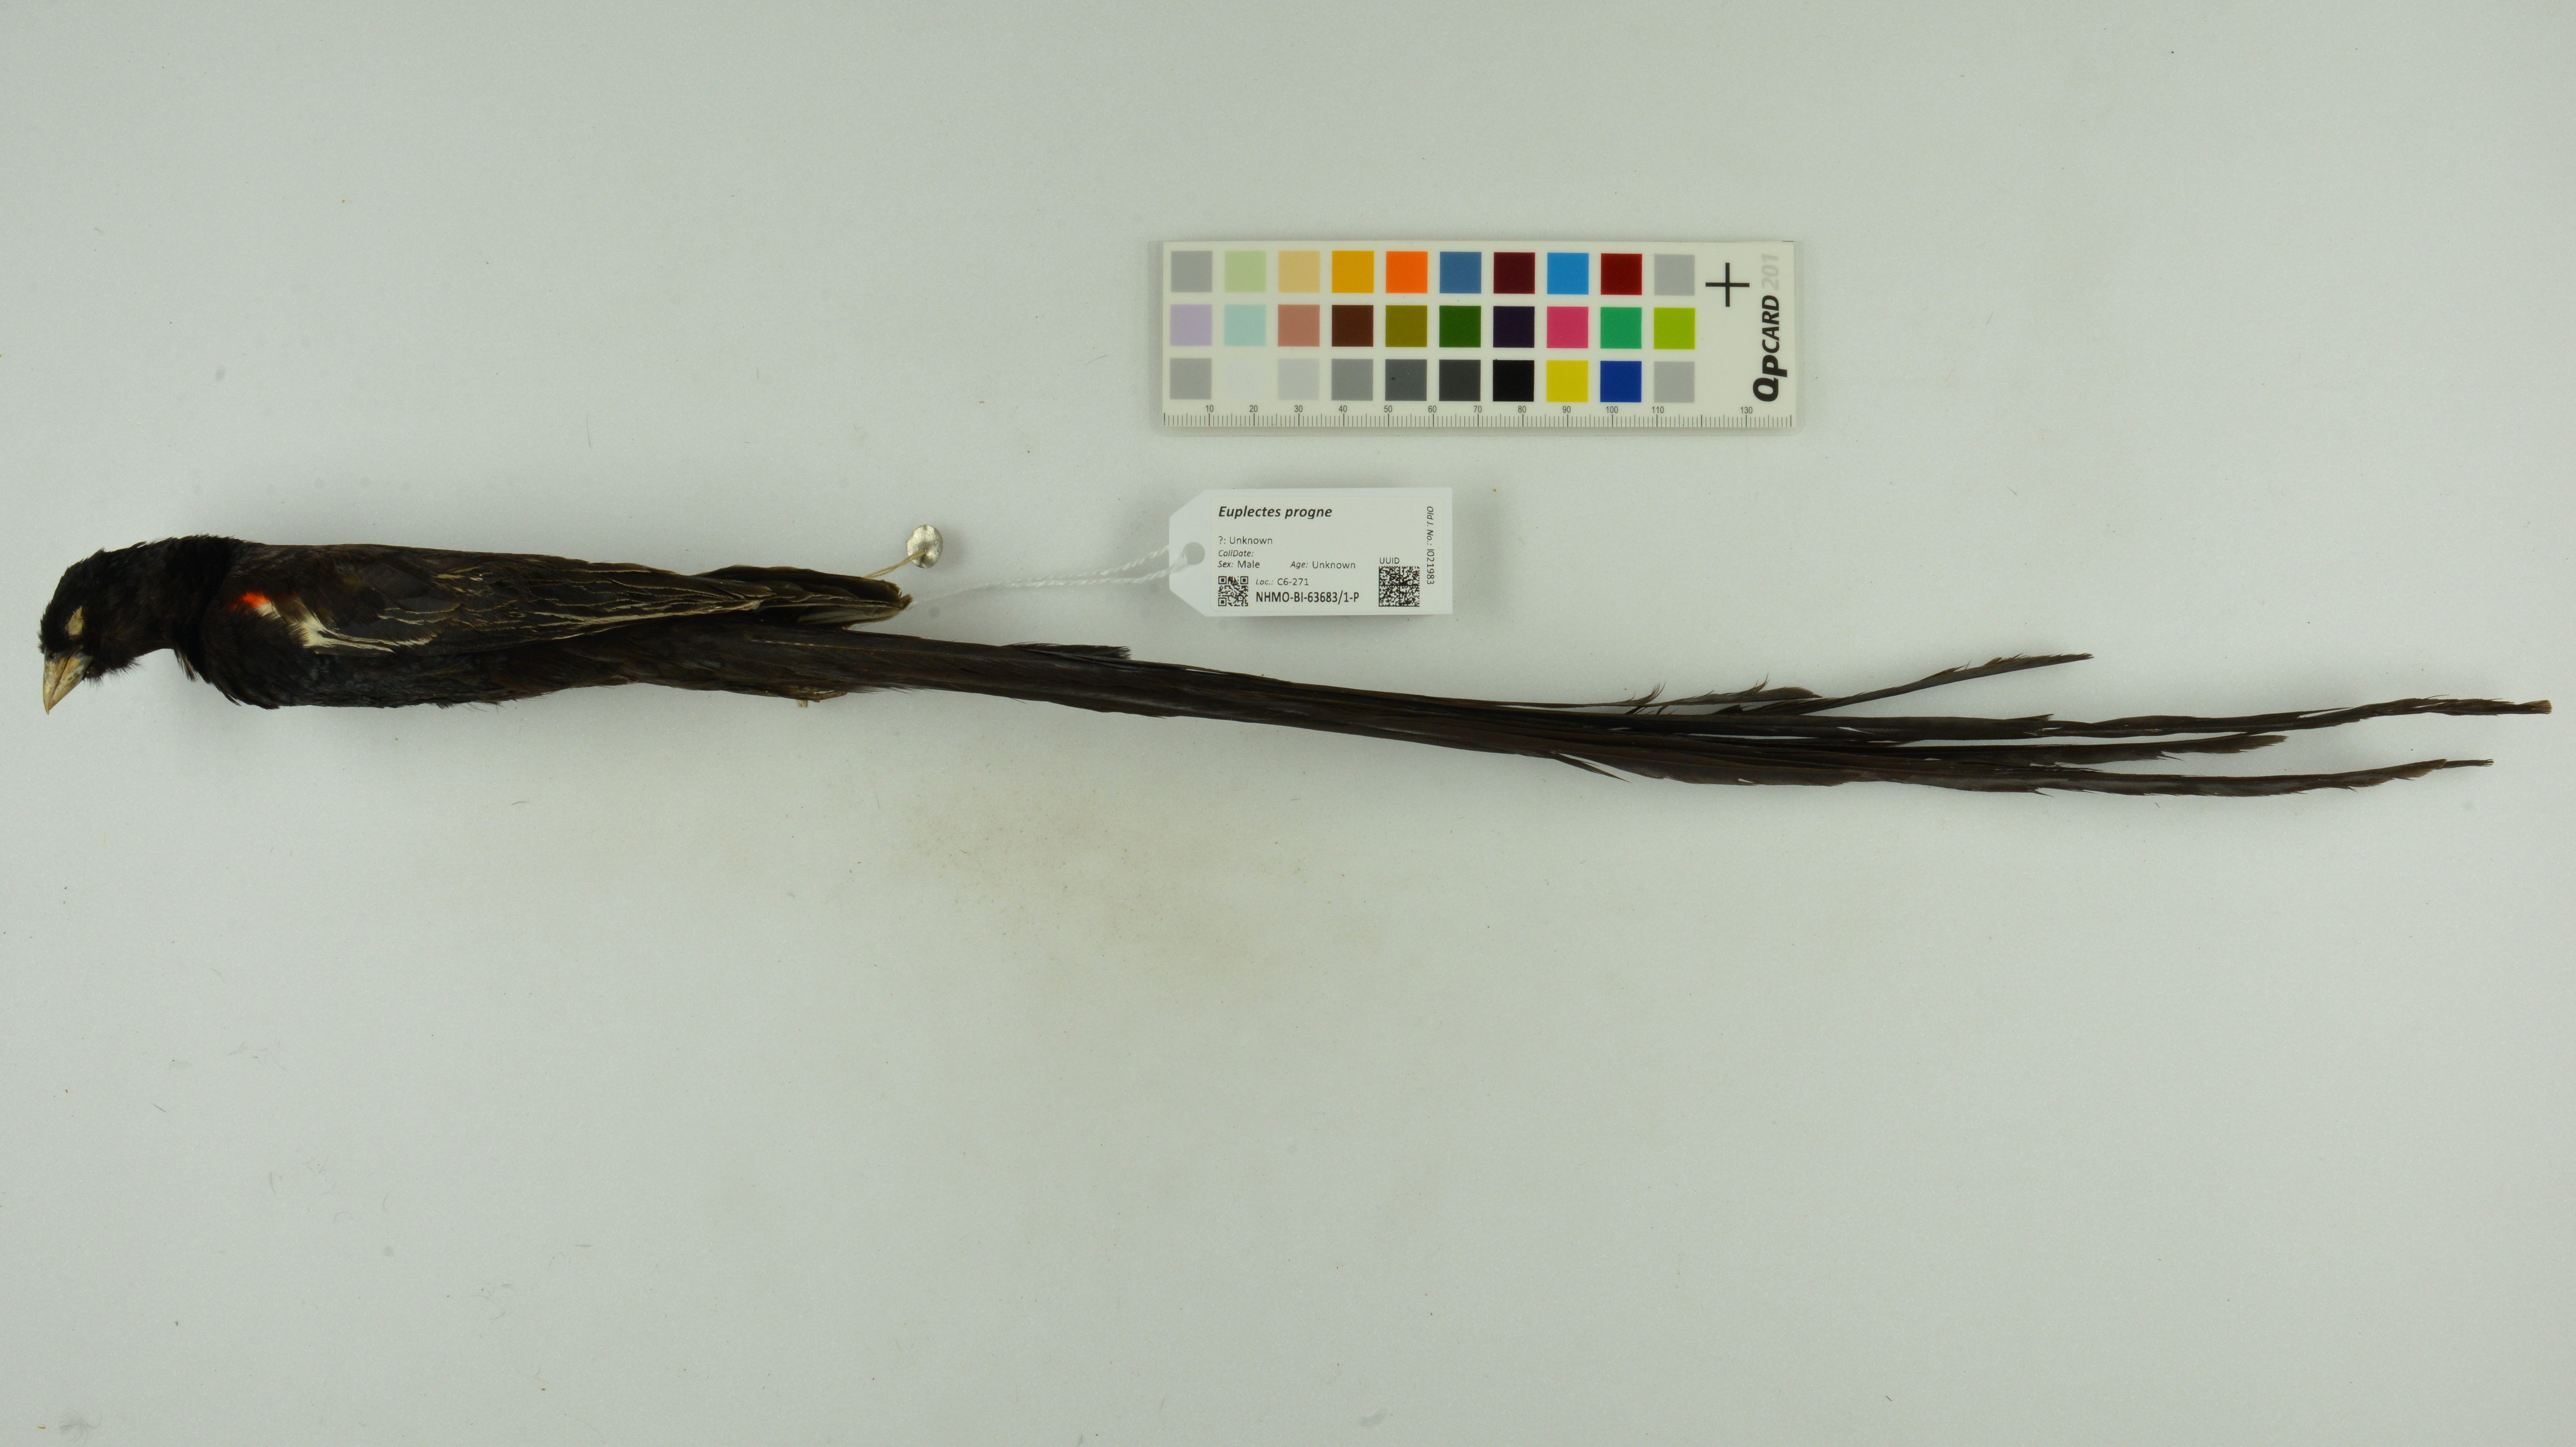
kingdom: Animalia
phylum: Chordata
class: Aves
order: Passeriformes
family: Ploceidae
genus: Euplectes
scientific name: Euplectes progne
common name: Long-tailed widowbird
